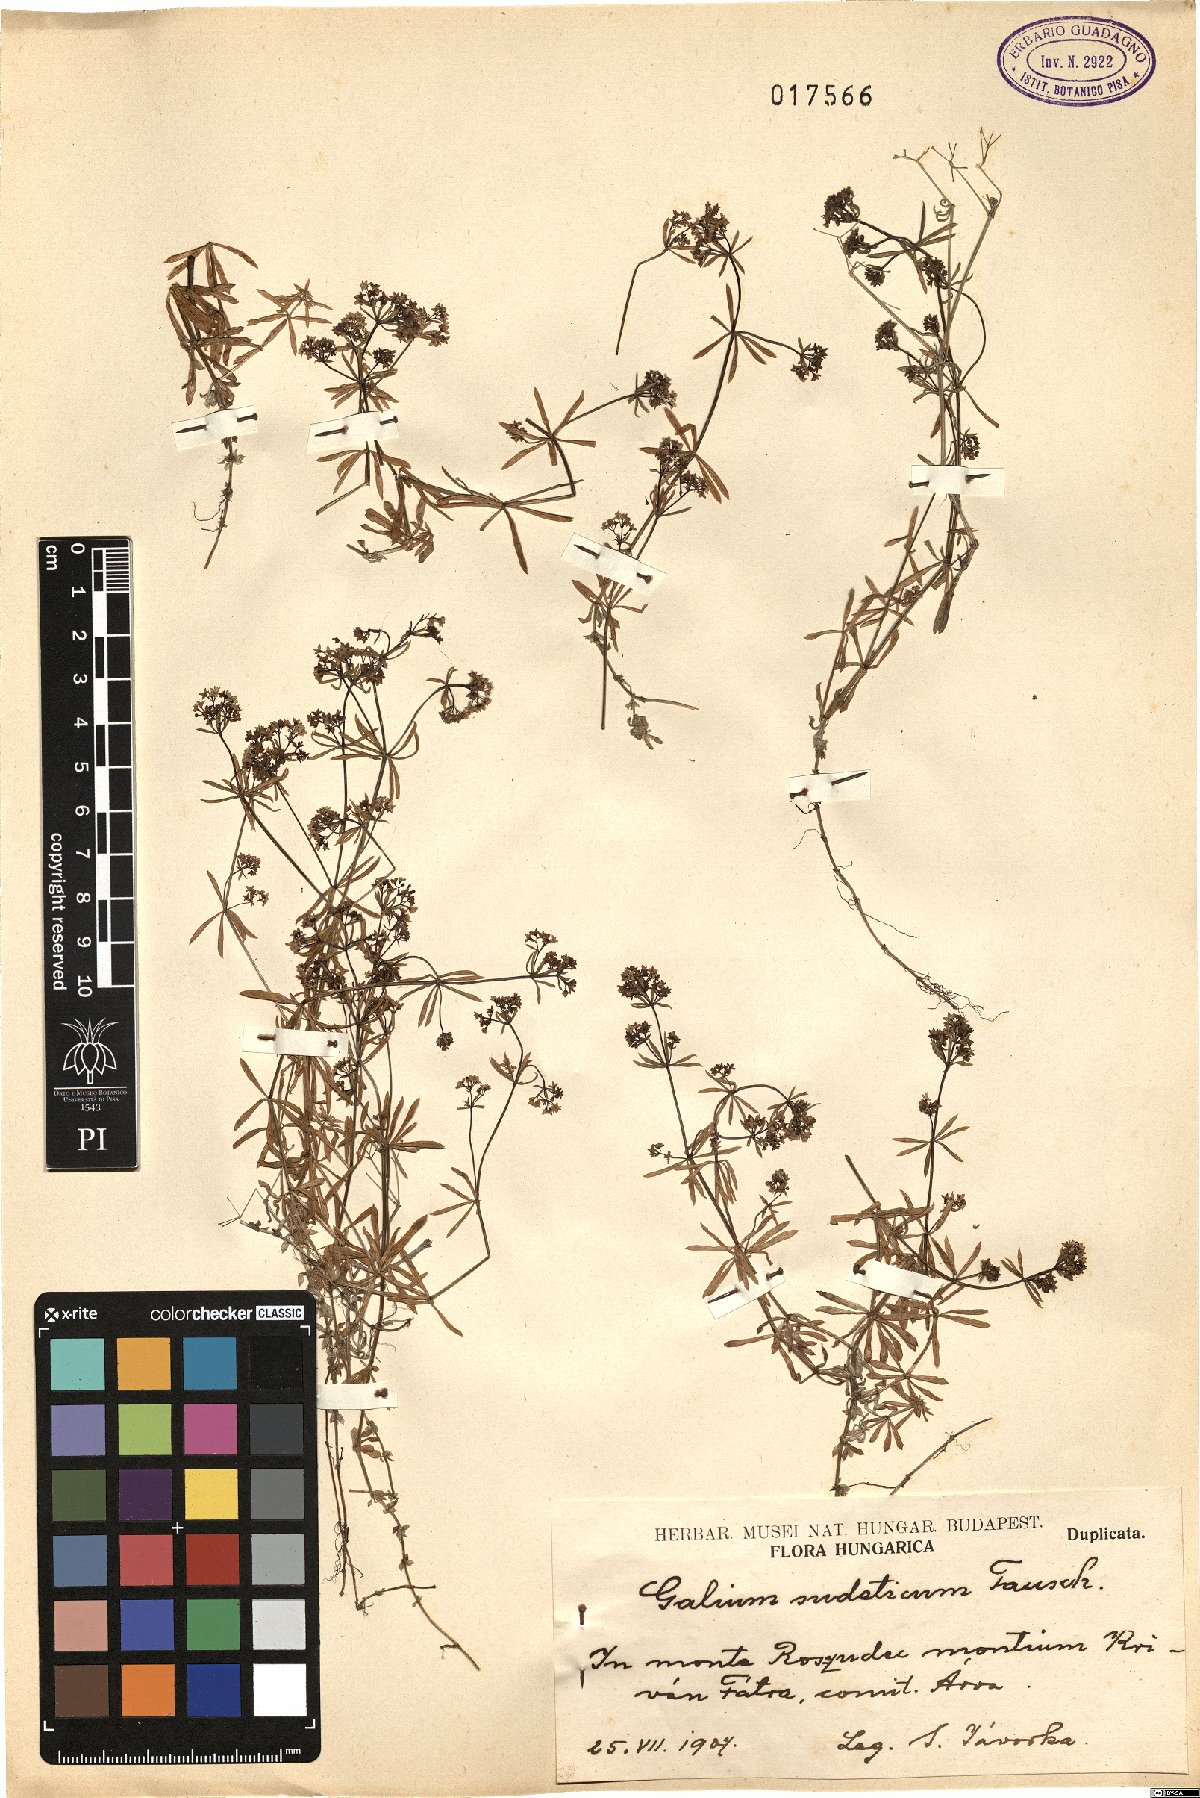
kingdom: Plantae
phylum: Tracheophyta
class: Magnoliopsida
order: Gentianales
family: Rubiaceae
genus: Galium
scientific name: Galium sudeticum
